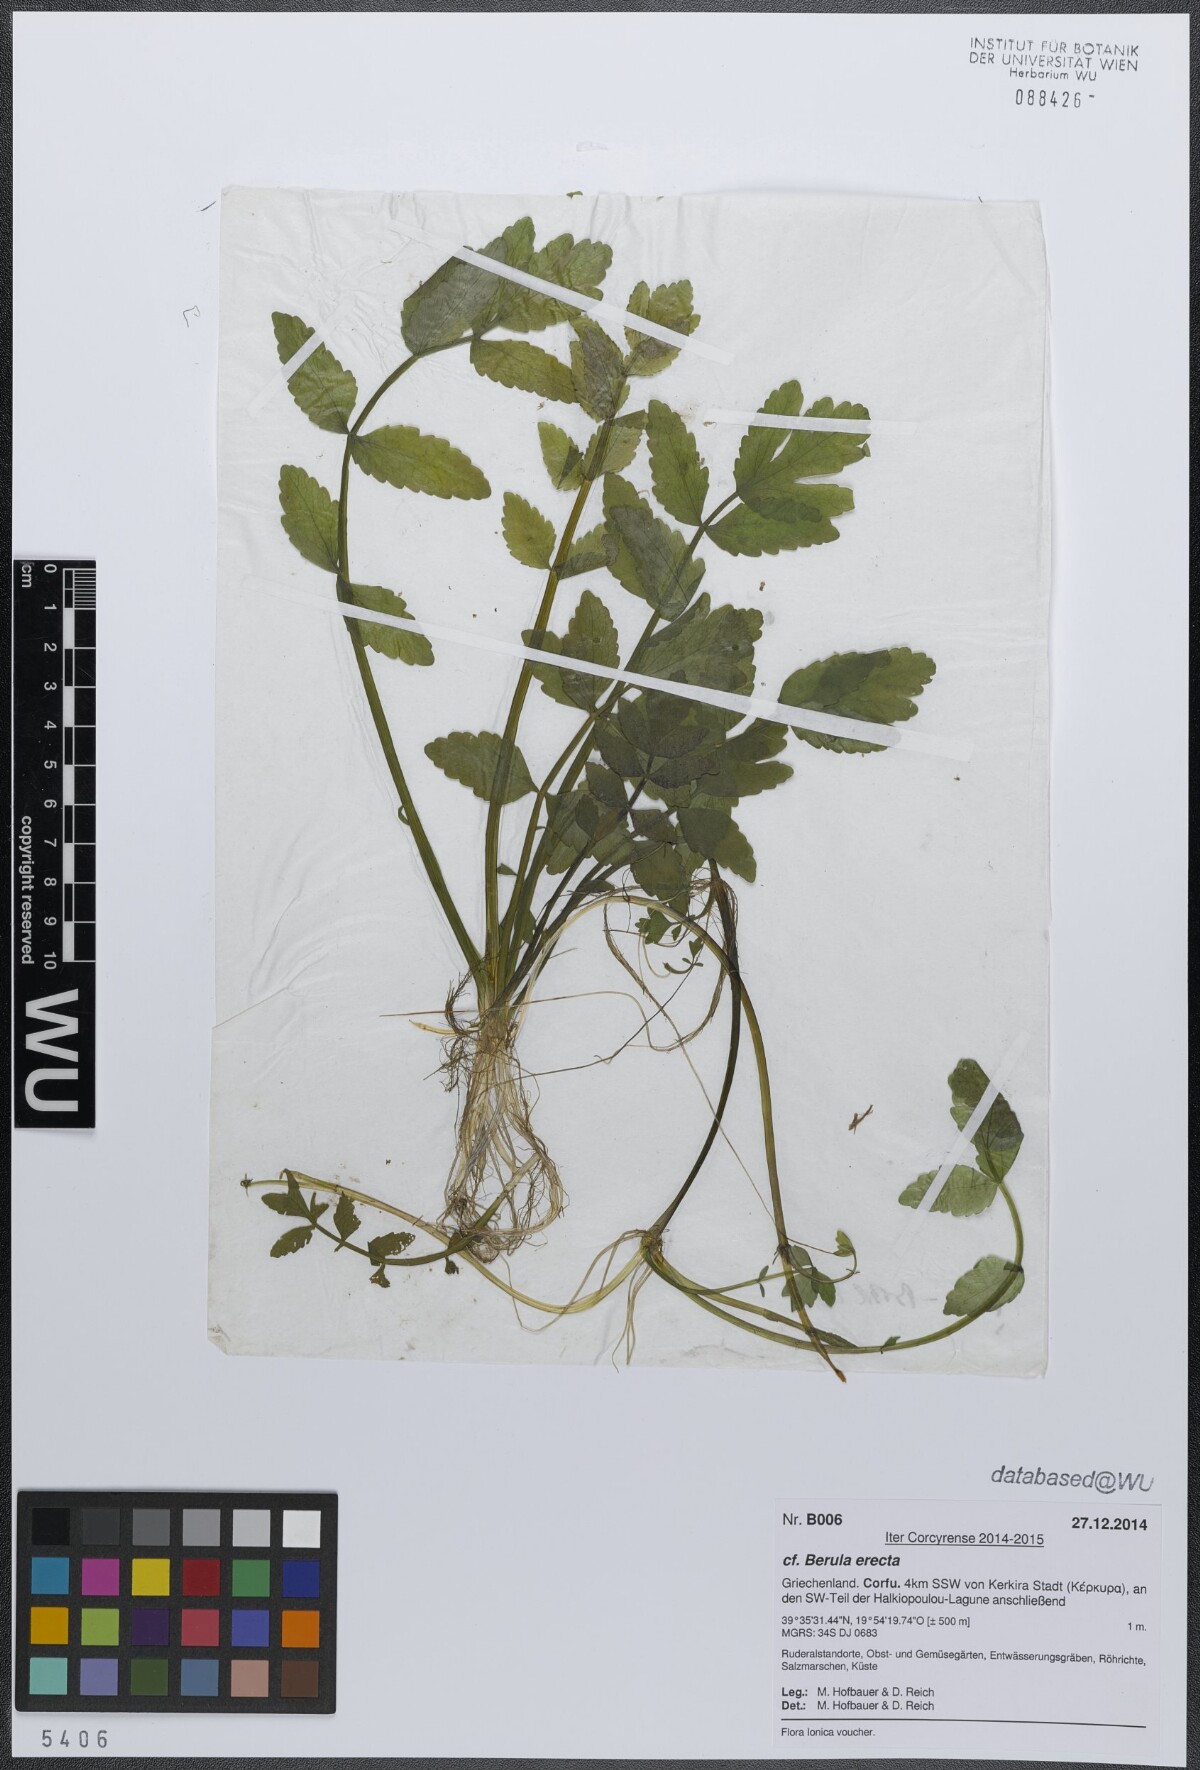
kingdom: Plantae
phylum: Tracheophyta
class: Magnoliopsida
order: Apiales
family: Apiaceae
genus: Berula
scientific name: Berula erecta
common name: Lesser water-parsnip
